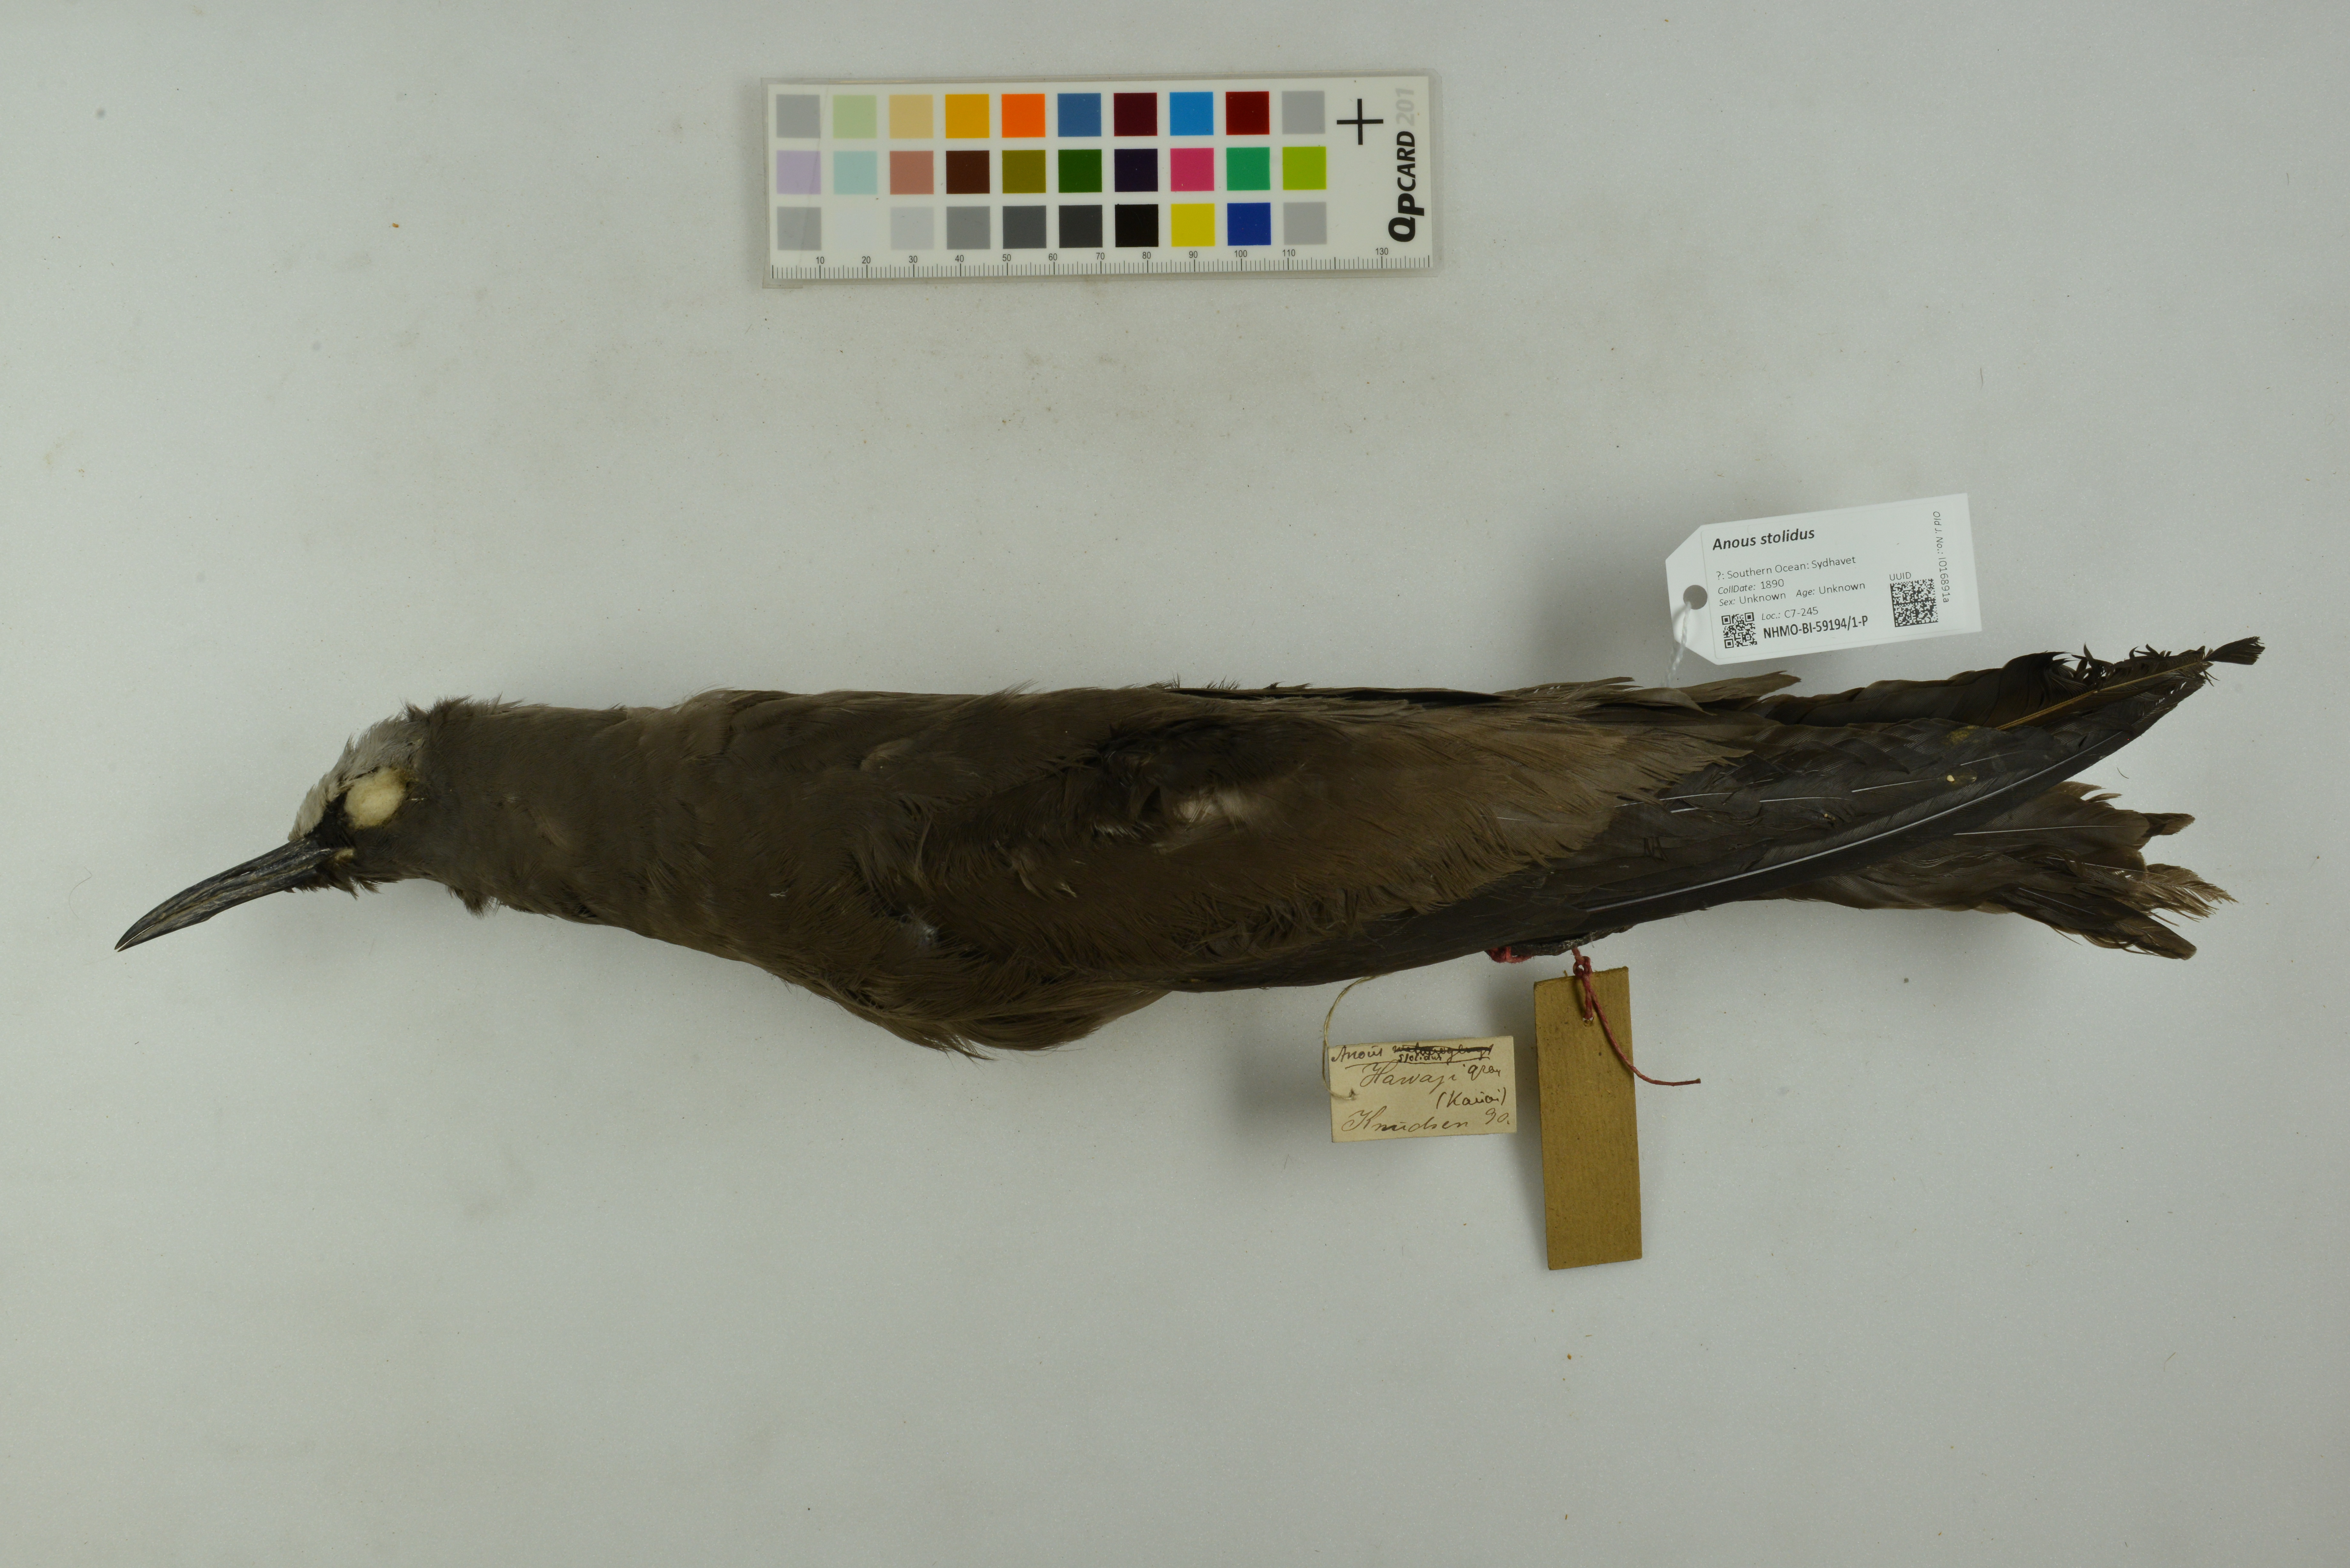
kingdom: Animalia
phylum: Chordata
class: Aves
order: Charadriiformes
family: Laridae
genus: Anous
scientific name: Anous stolidus
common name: Brown noddy
